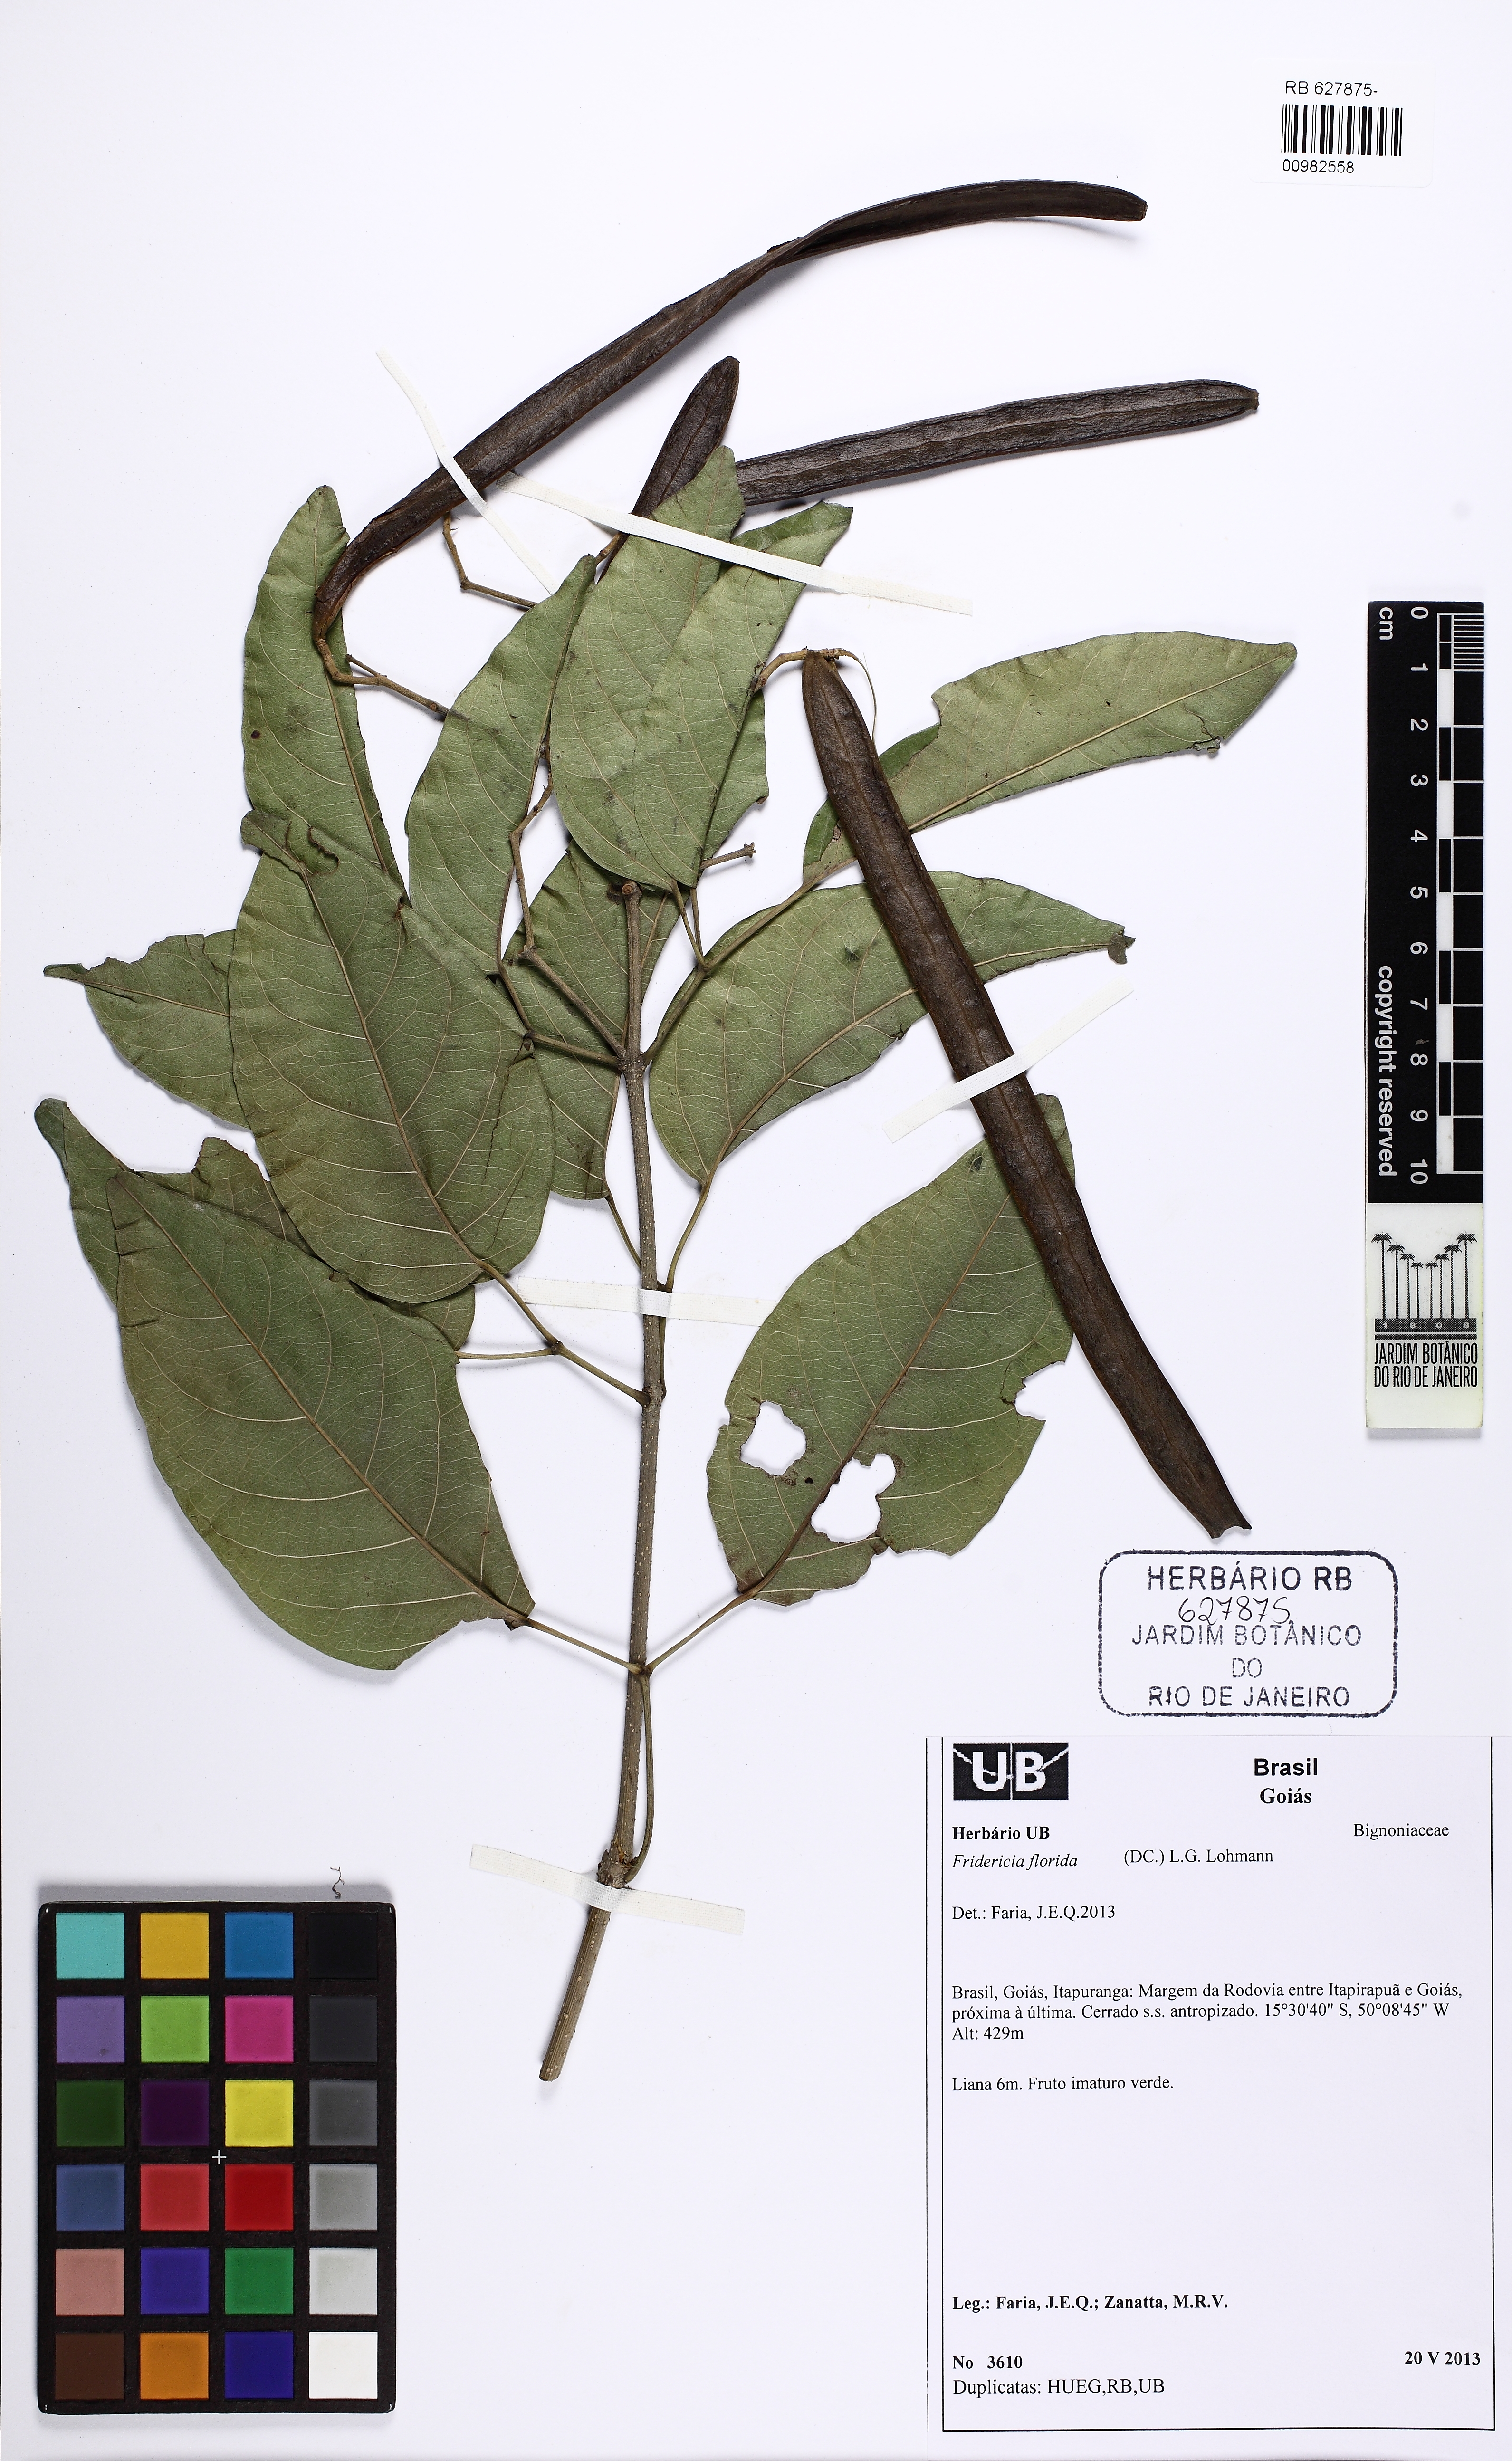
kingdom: Plantae
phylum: Tracheophyta
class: Magnoliopsida
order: Lamiales
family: Bignoniaceae
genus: Fridericia
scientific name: Fridericia florida
